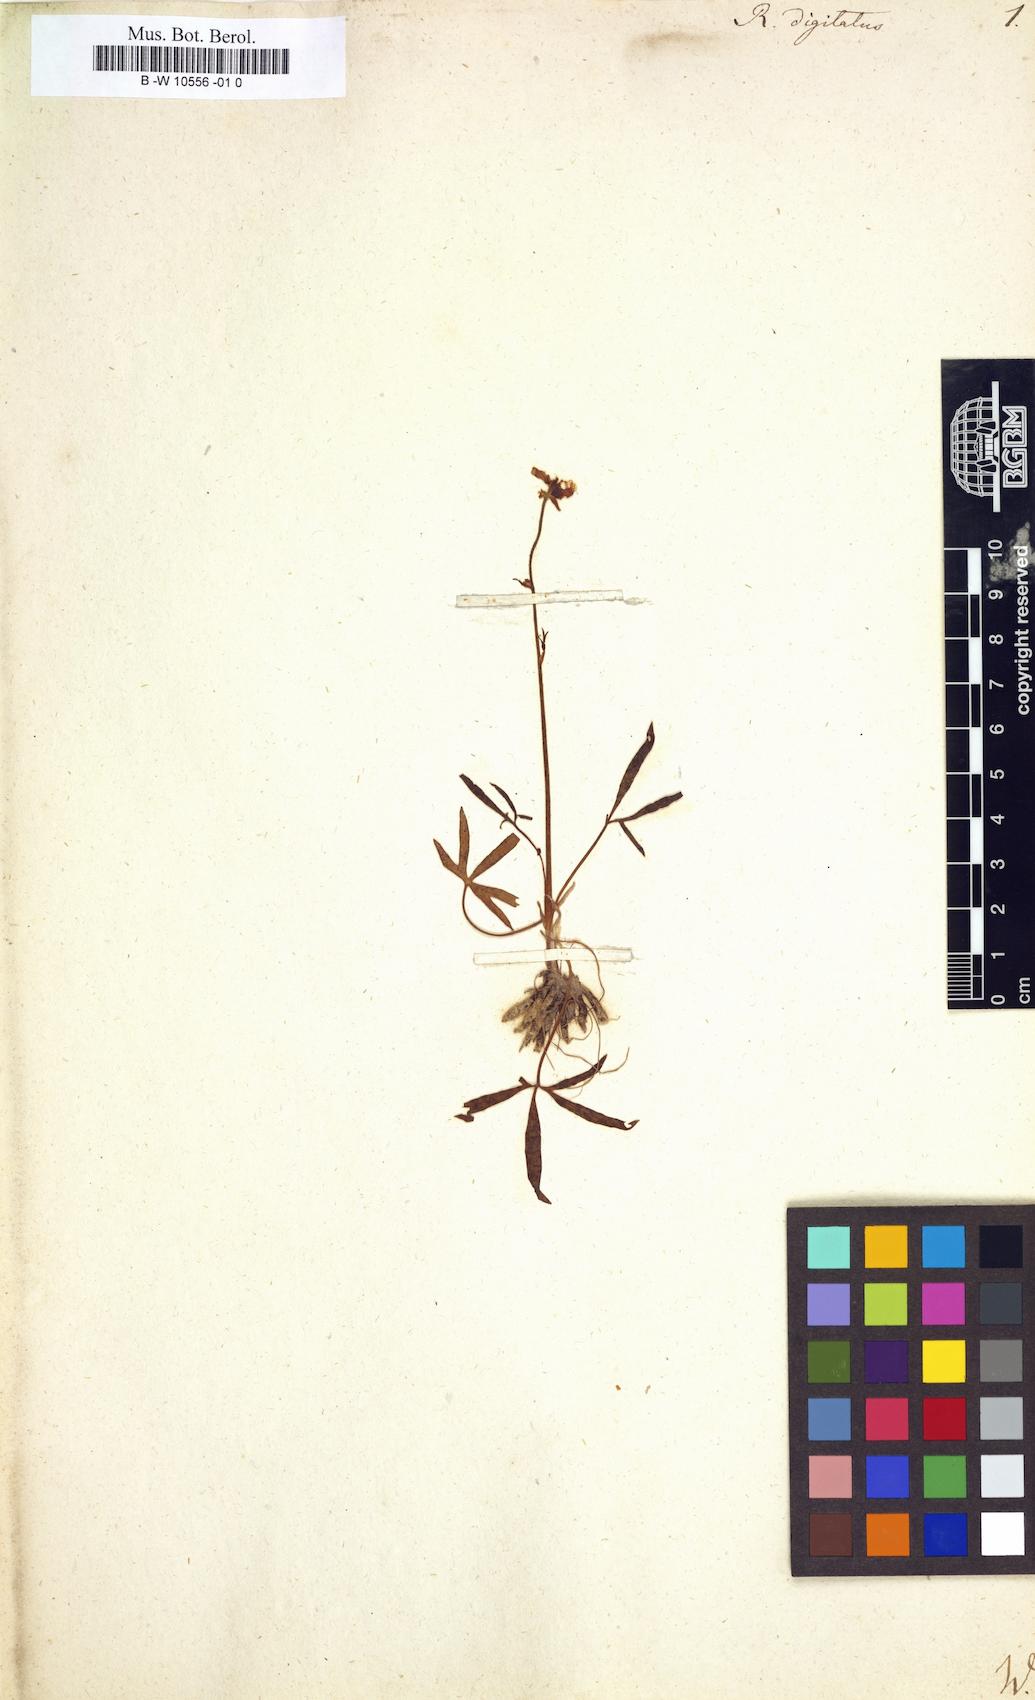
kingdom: Plantae
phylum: Tracheophyta
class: Magnoliopsida
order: Ranunculales
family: Ranunculaceae
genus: Ranunculus
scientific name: Ranunculus digitatus
